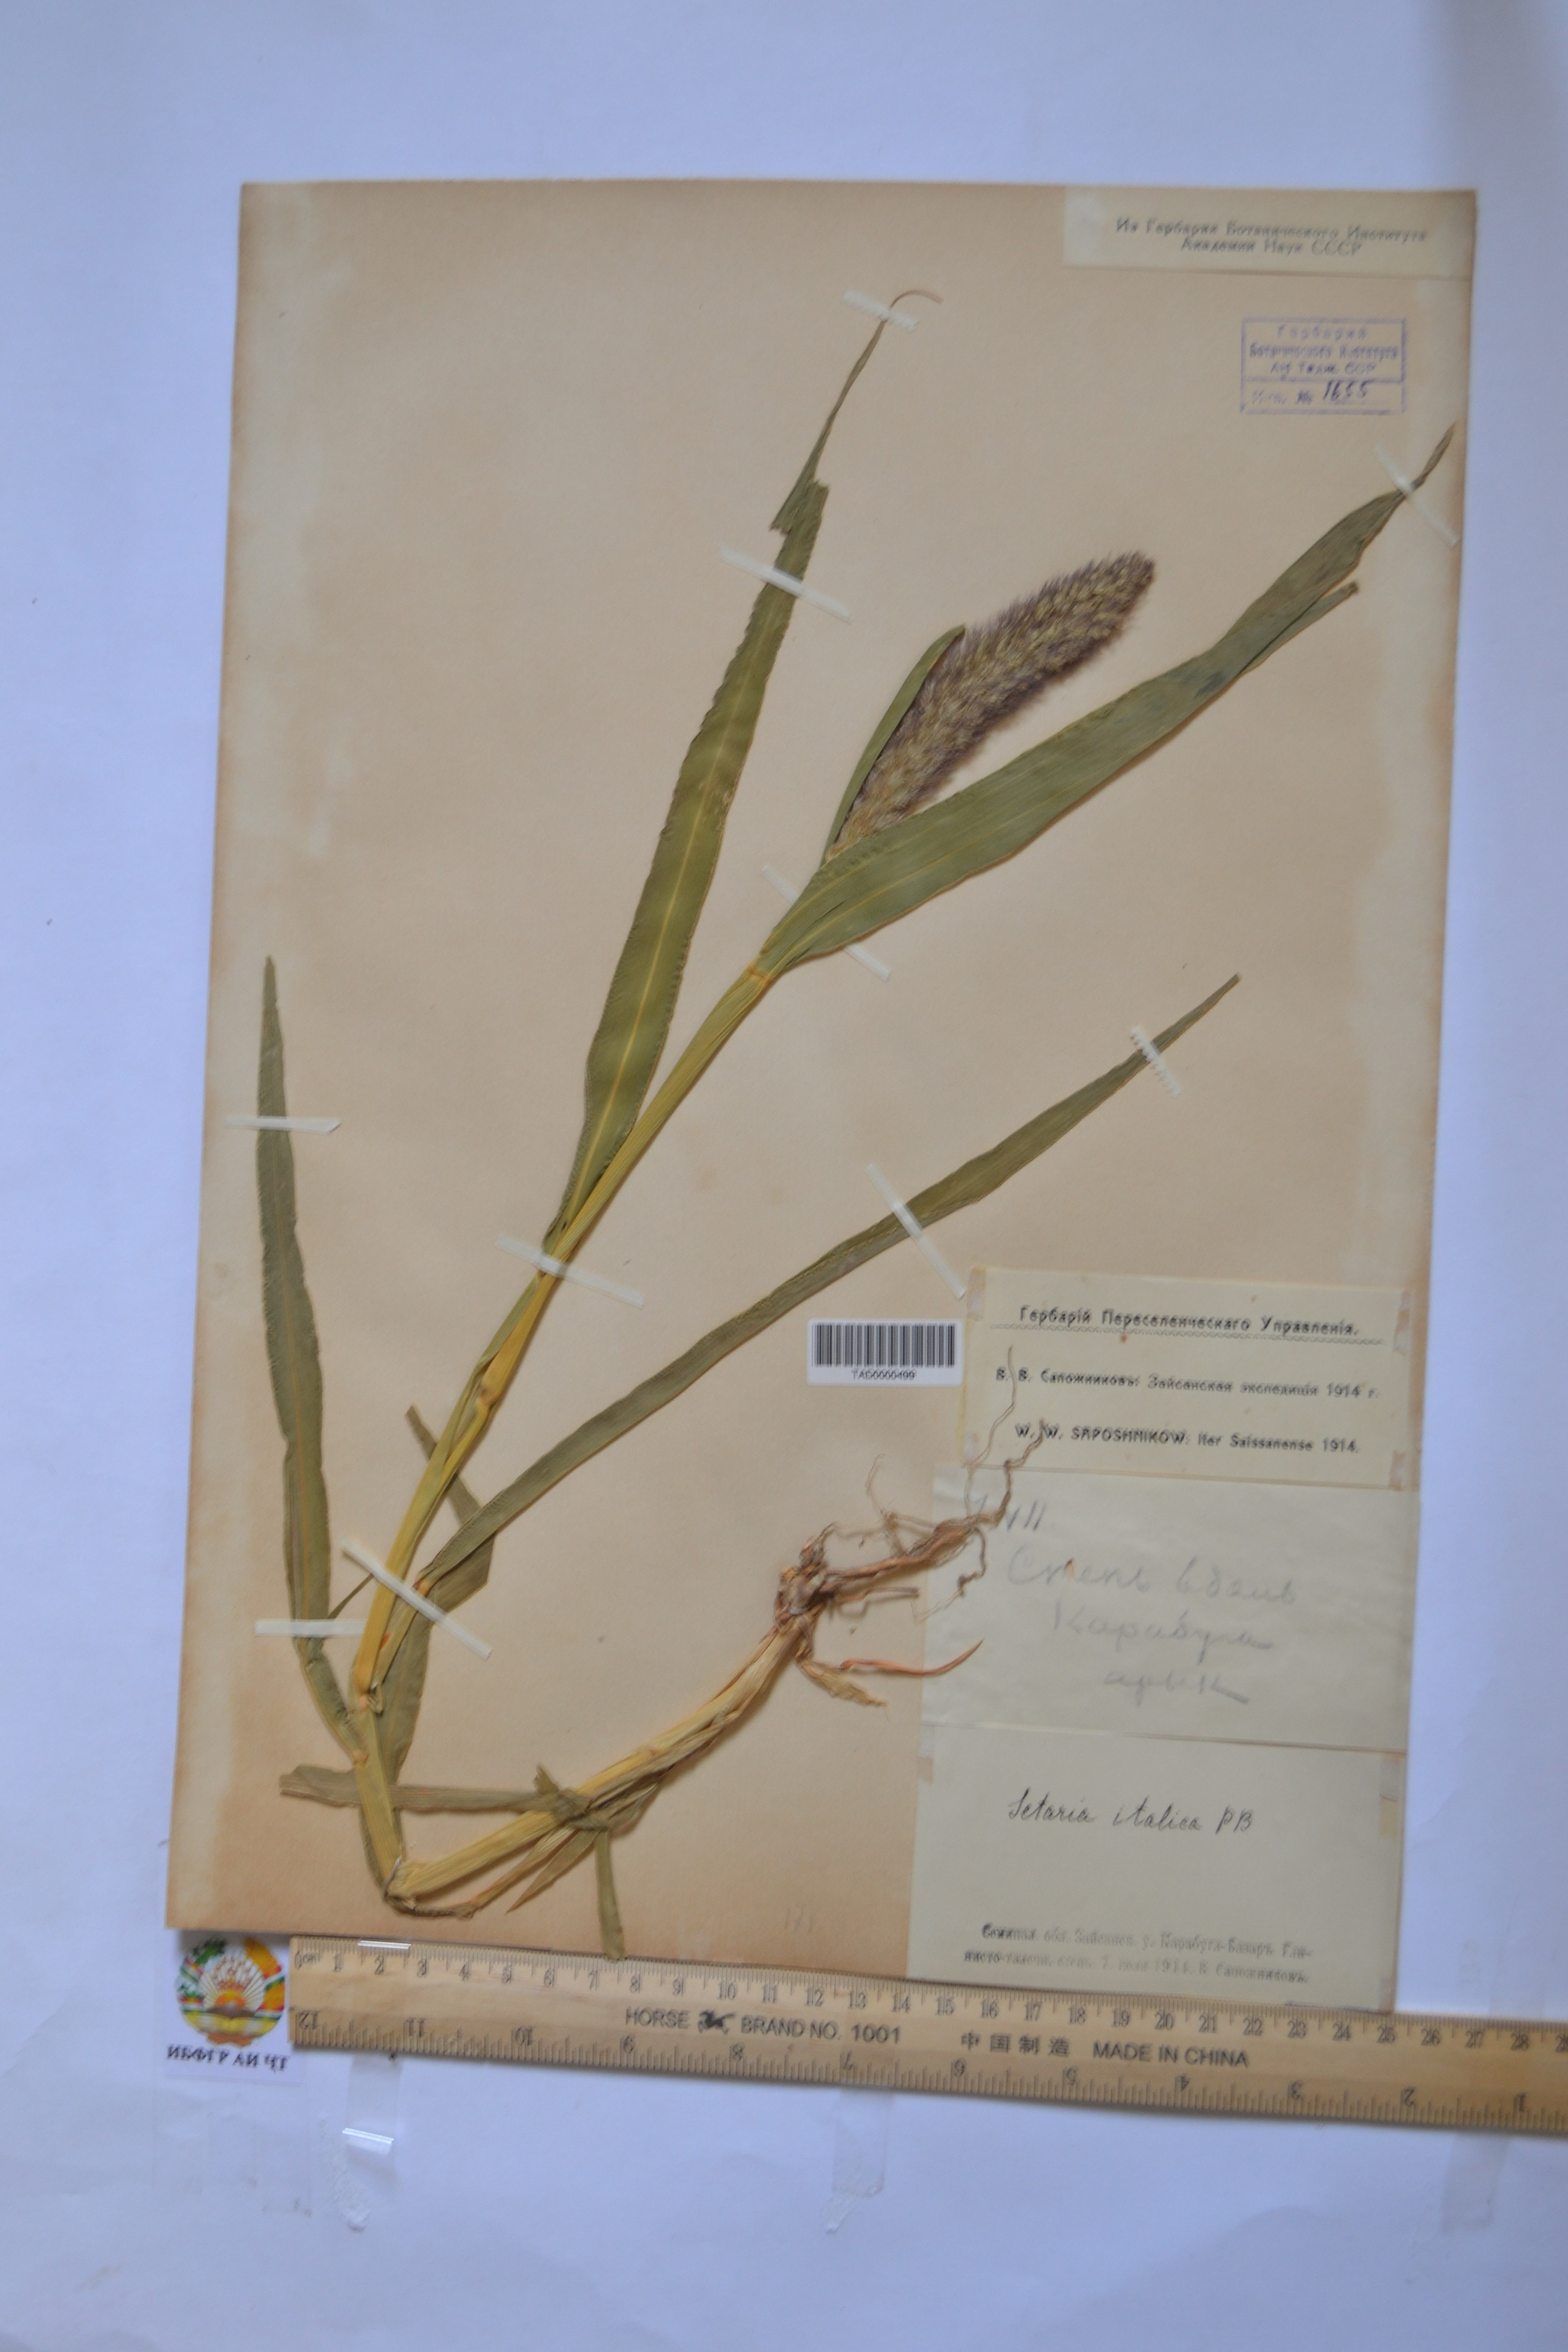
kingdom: Plantae
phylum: Tracheophyta
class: Liliopsida
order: Poales
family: Poaceae
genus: Setaria
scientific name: Setaria italica
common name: Foxtail bristle-grass
